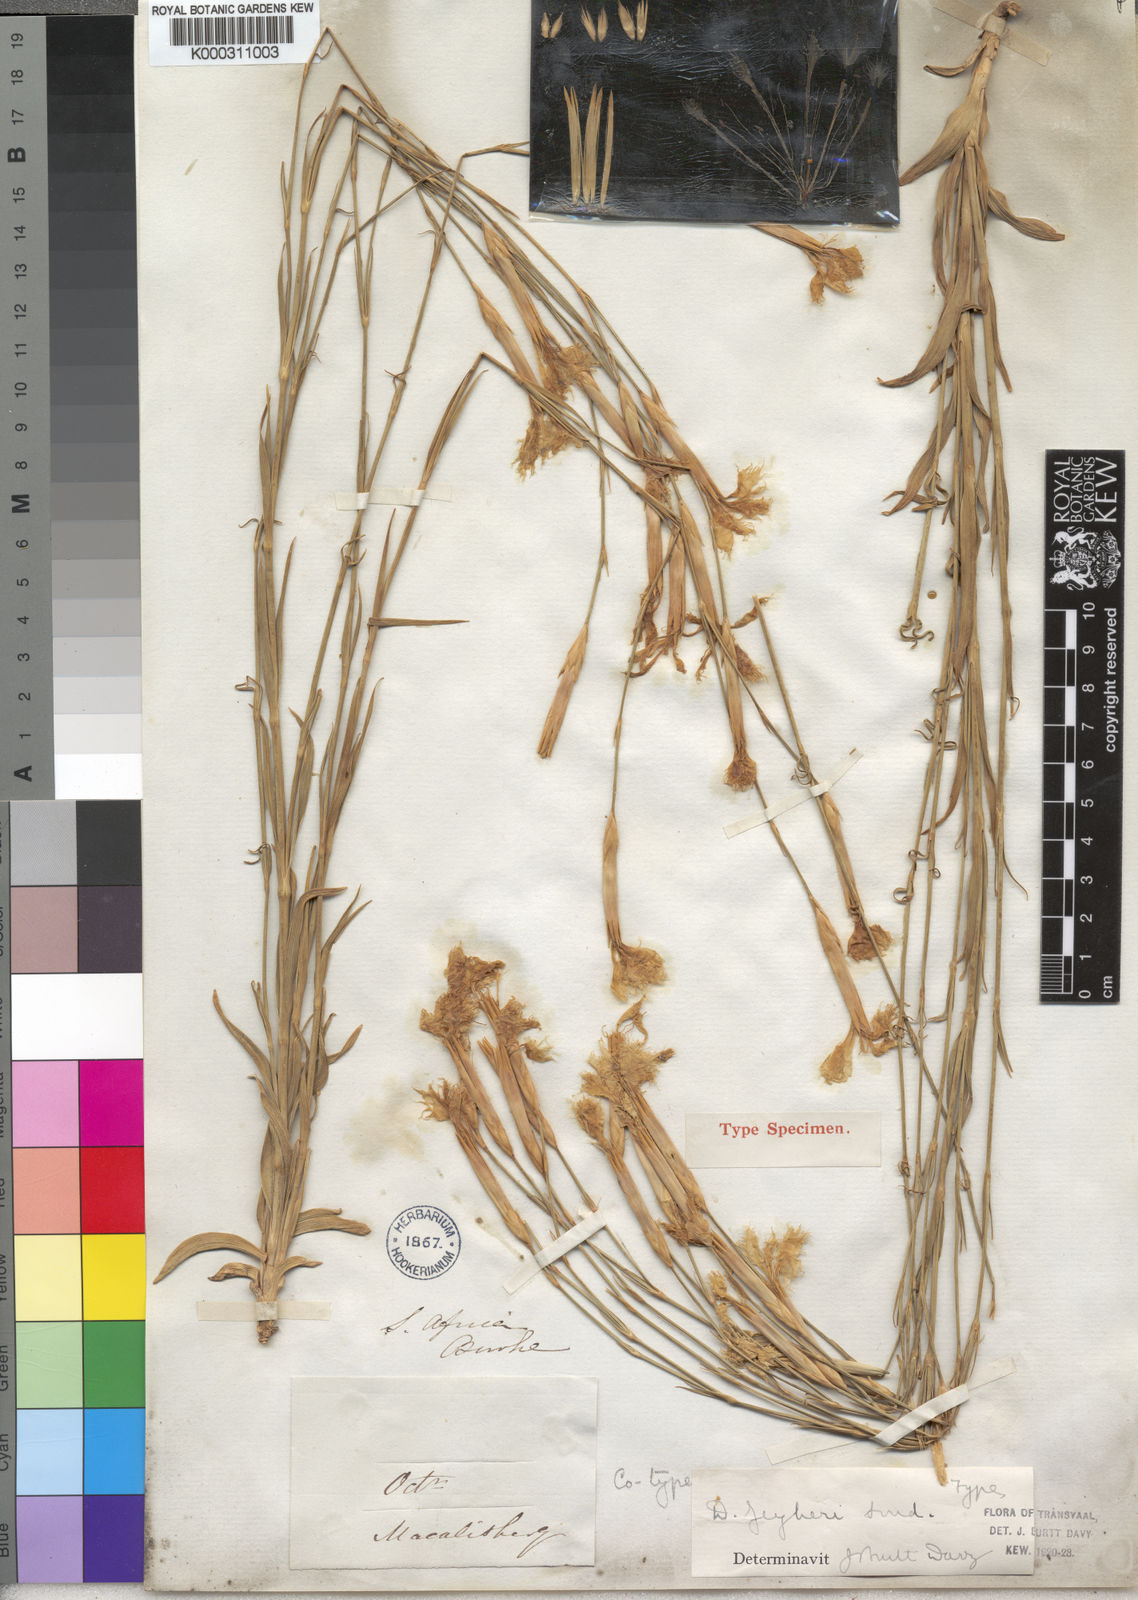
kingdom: Plantae
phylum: Tracheophyta
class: Magnoliopsida
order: Caryophyllales
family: Caryophyllaceae
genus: Dianthus
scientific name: Dianthus zeyheri
